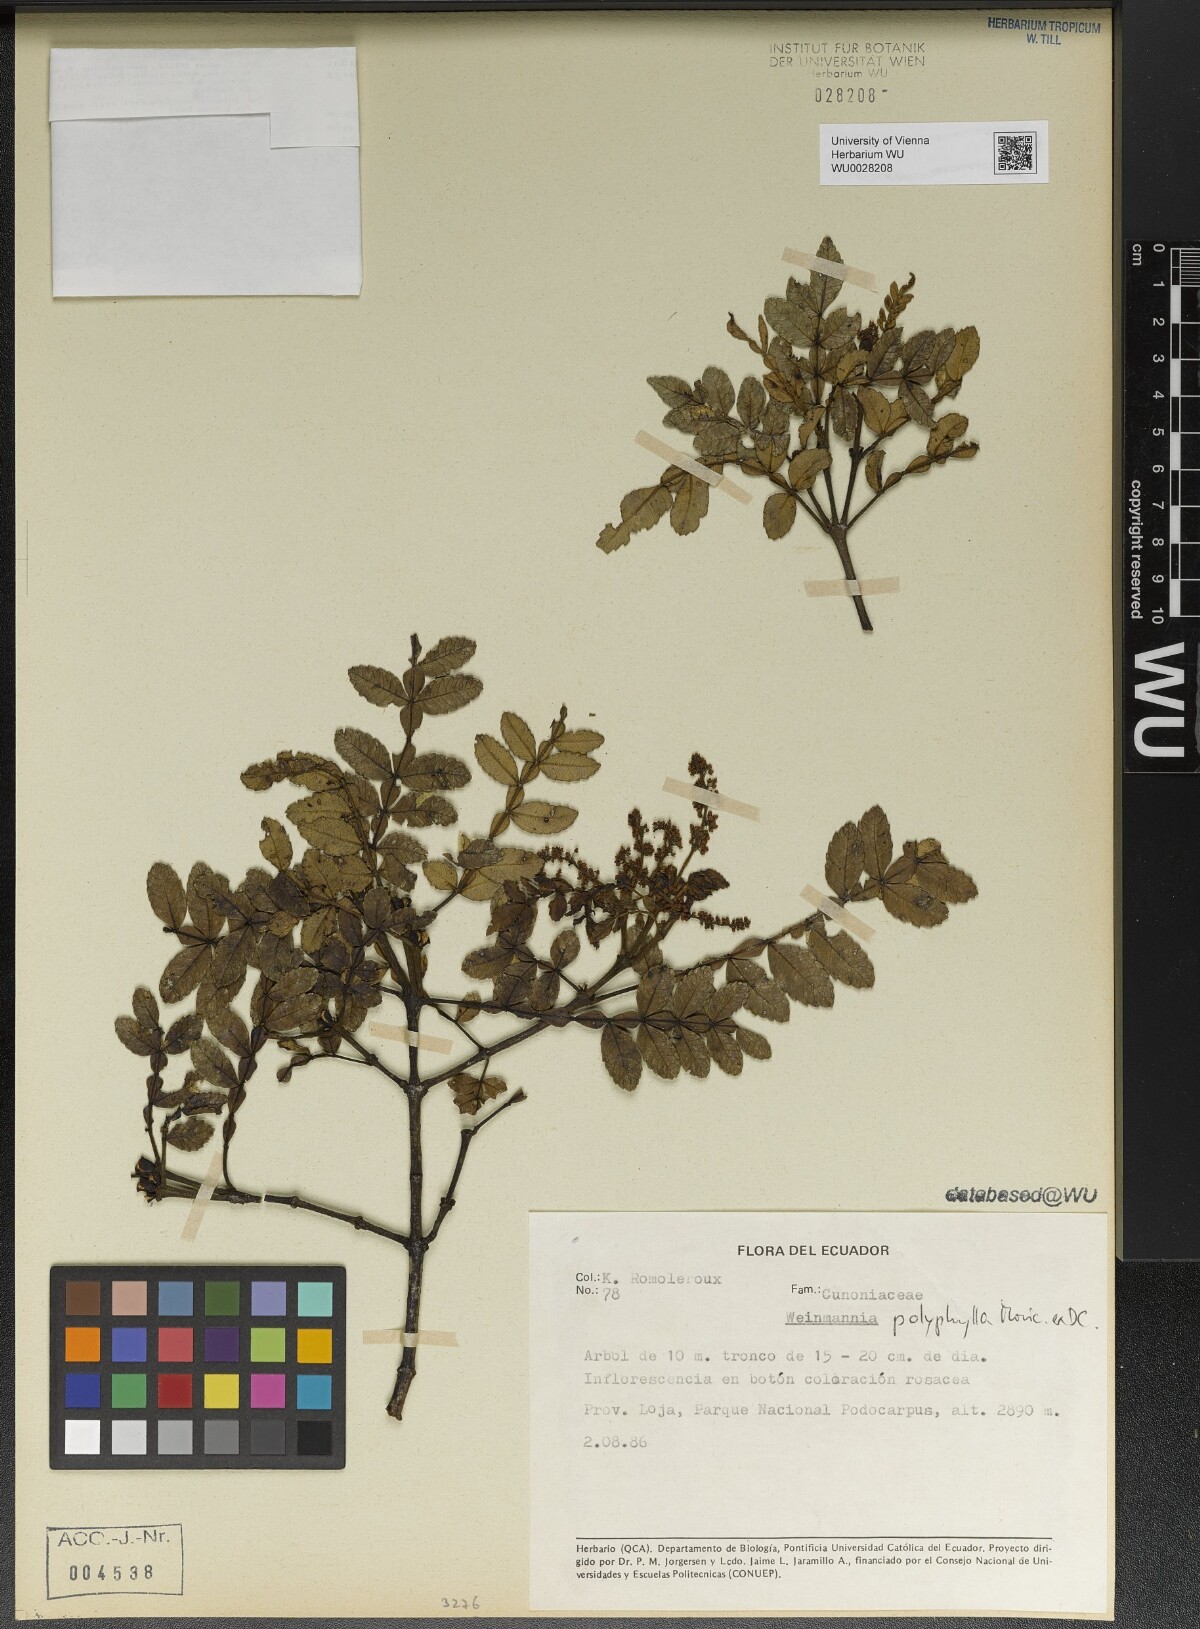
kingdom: Plantae
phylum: Tracheophyta
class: Magnoliopsida
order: Oxalidales
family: Cunoniaceae
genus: Weinmannia
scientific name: Weinmannia polyphylla
